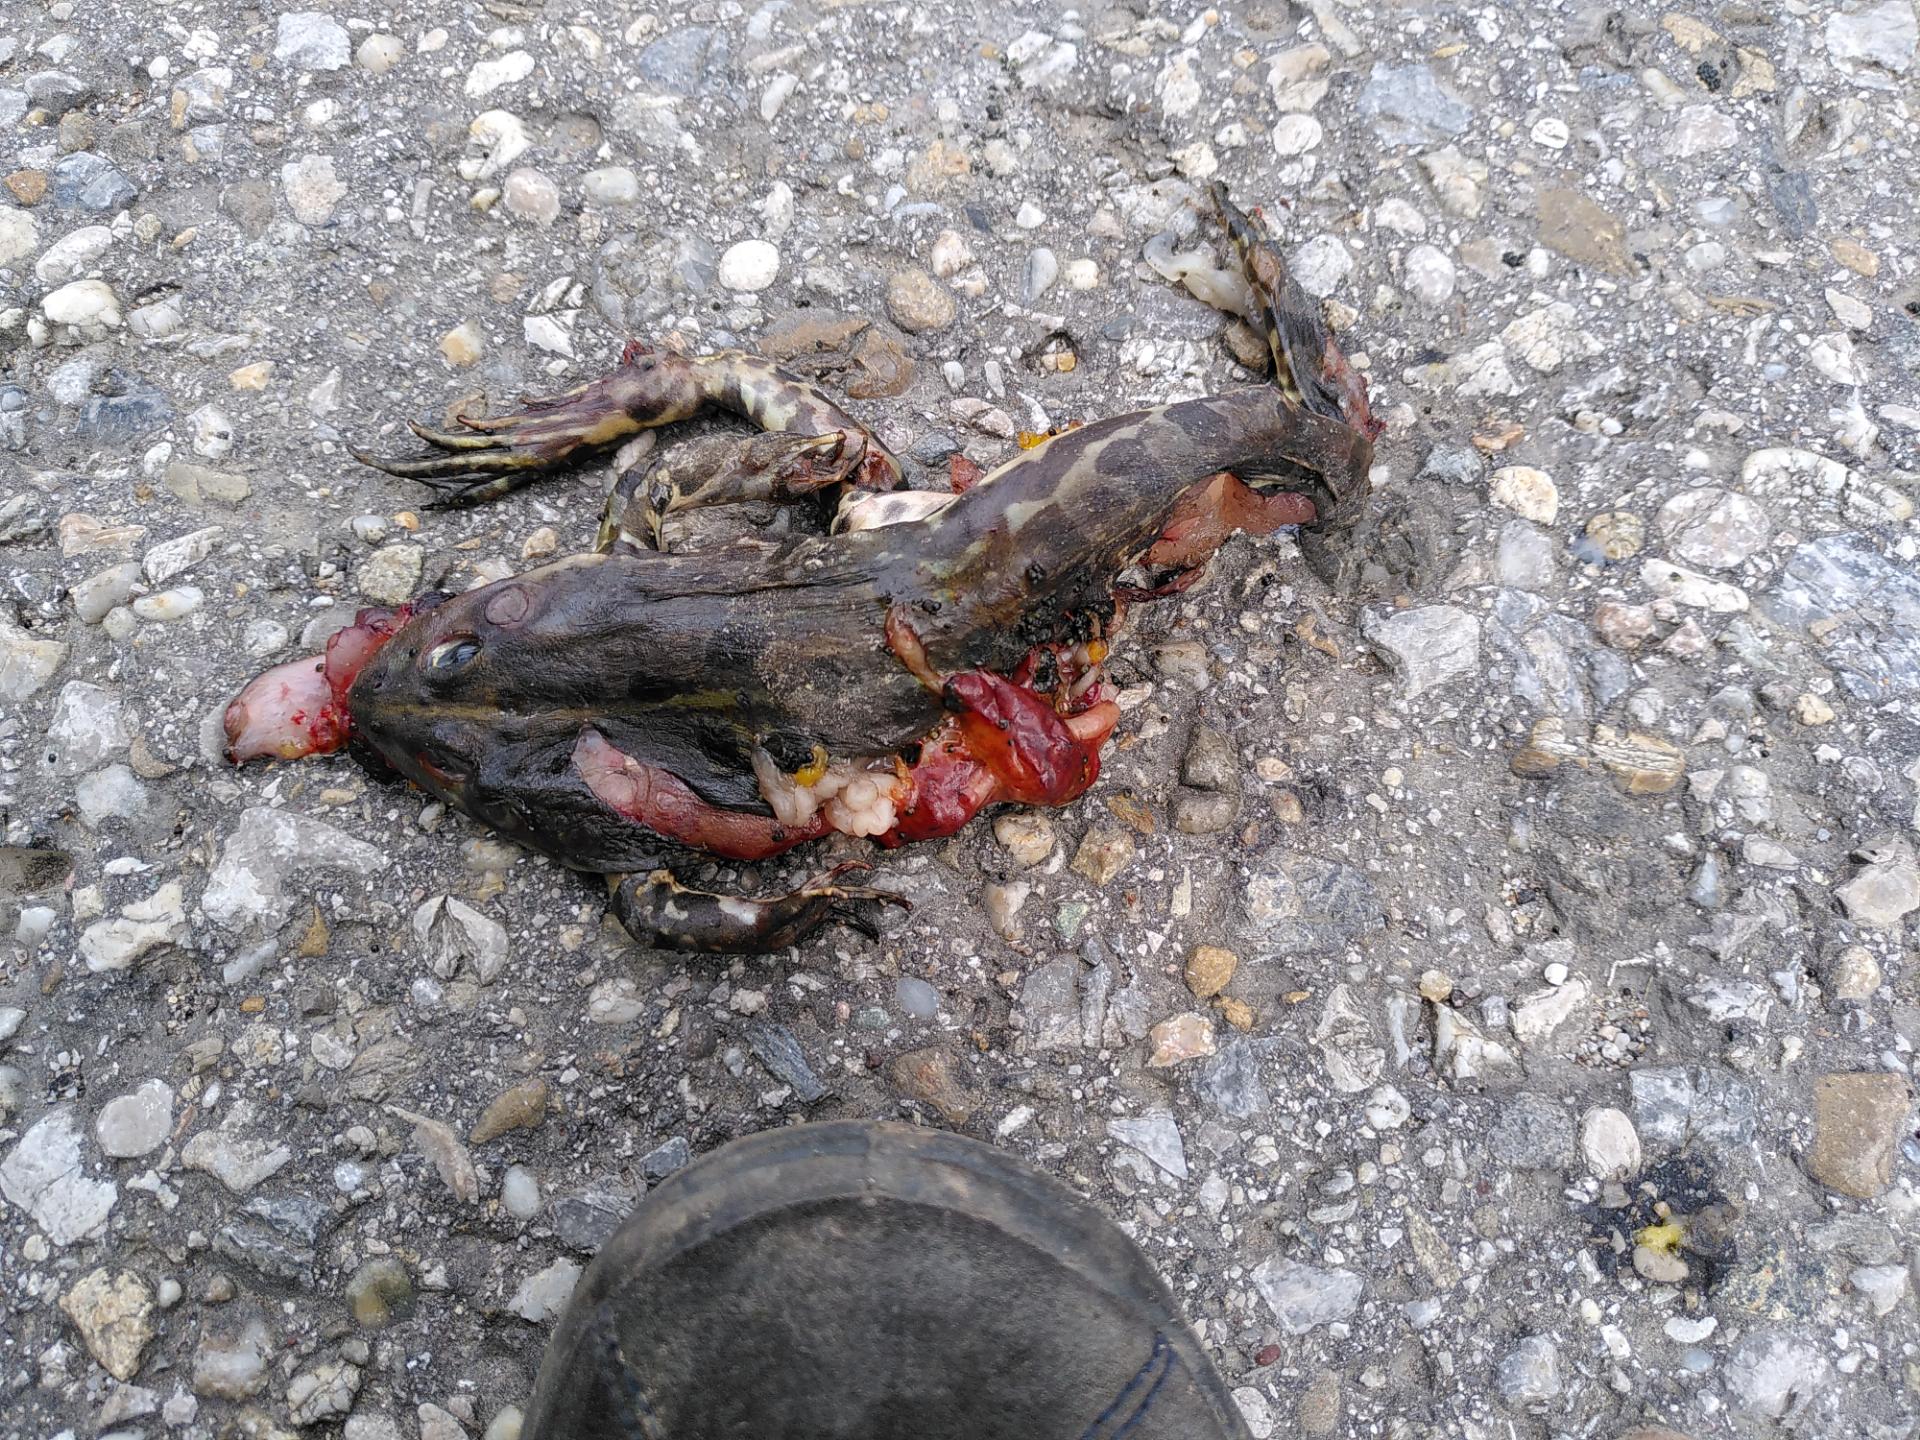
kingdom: Animalia
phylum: Chordata
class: Amphibia
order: Anura
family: Ranidae
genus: Pelophylax
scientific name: Pelophylax
